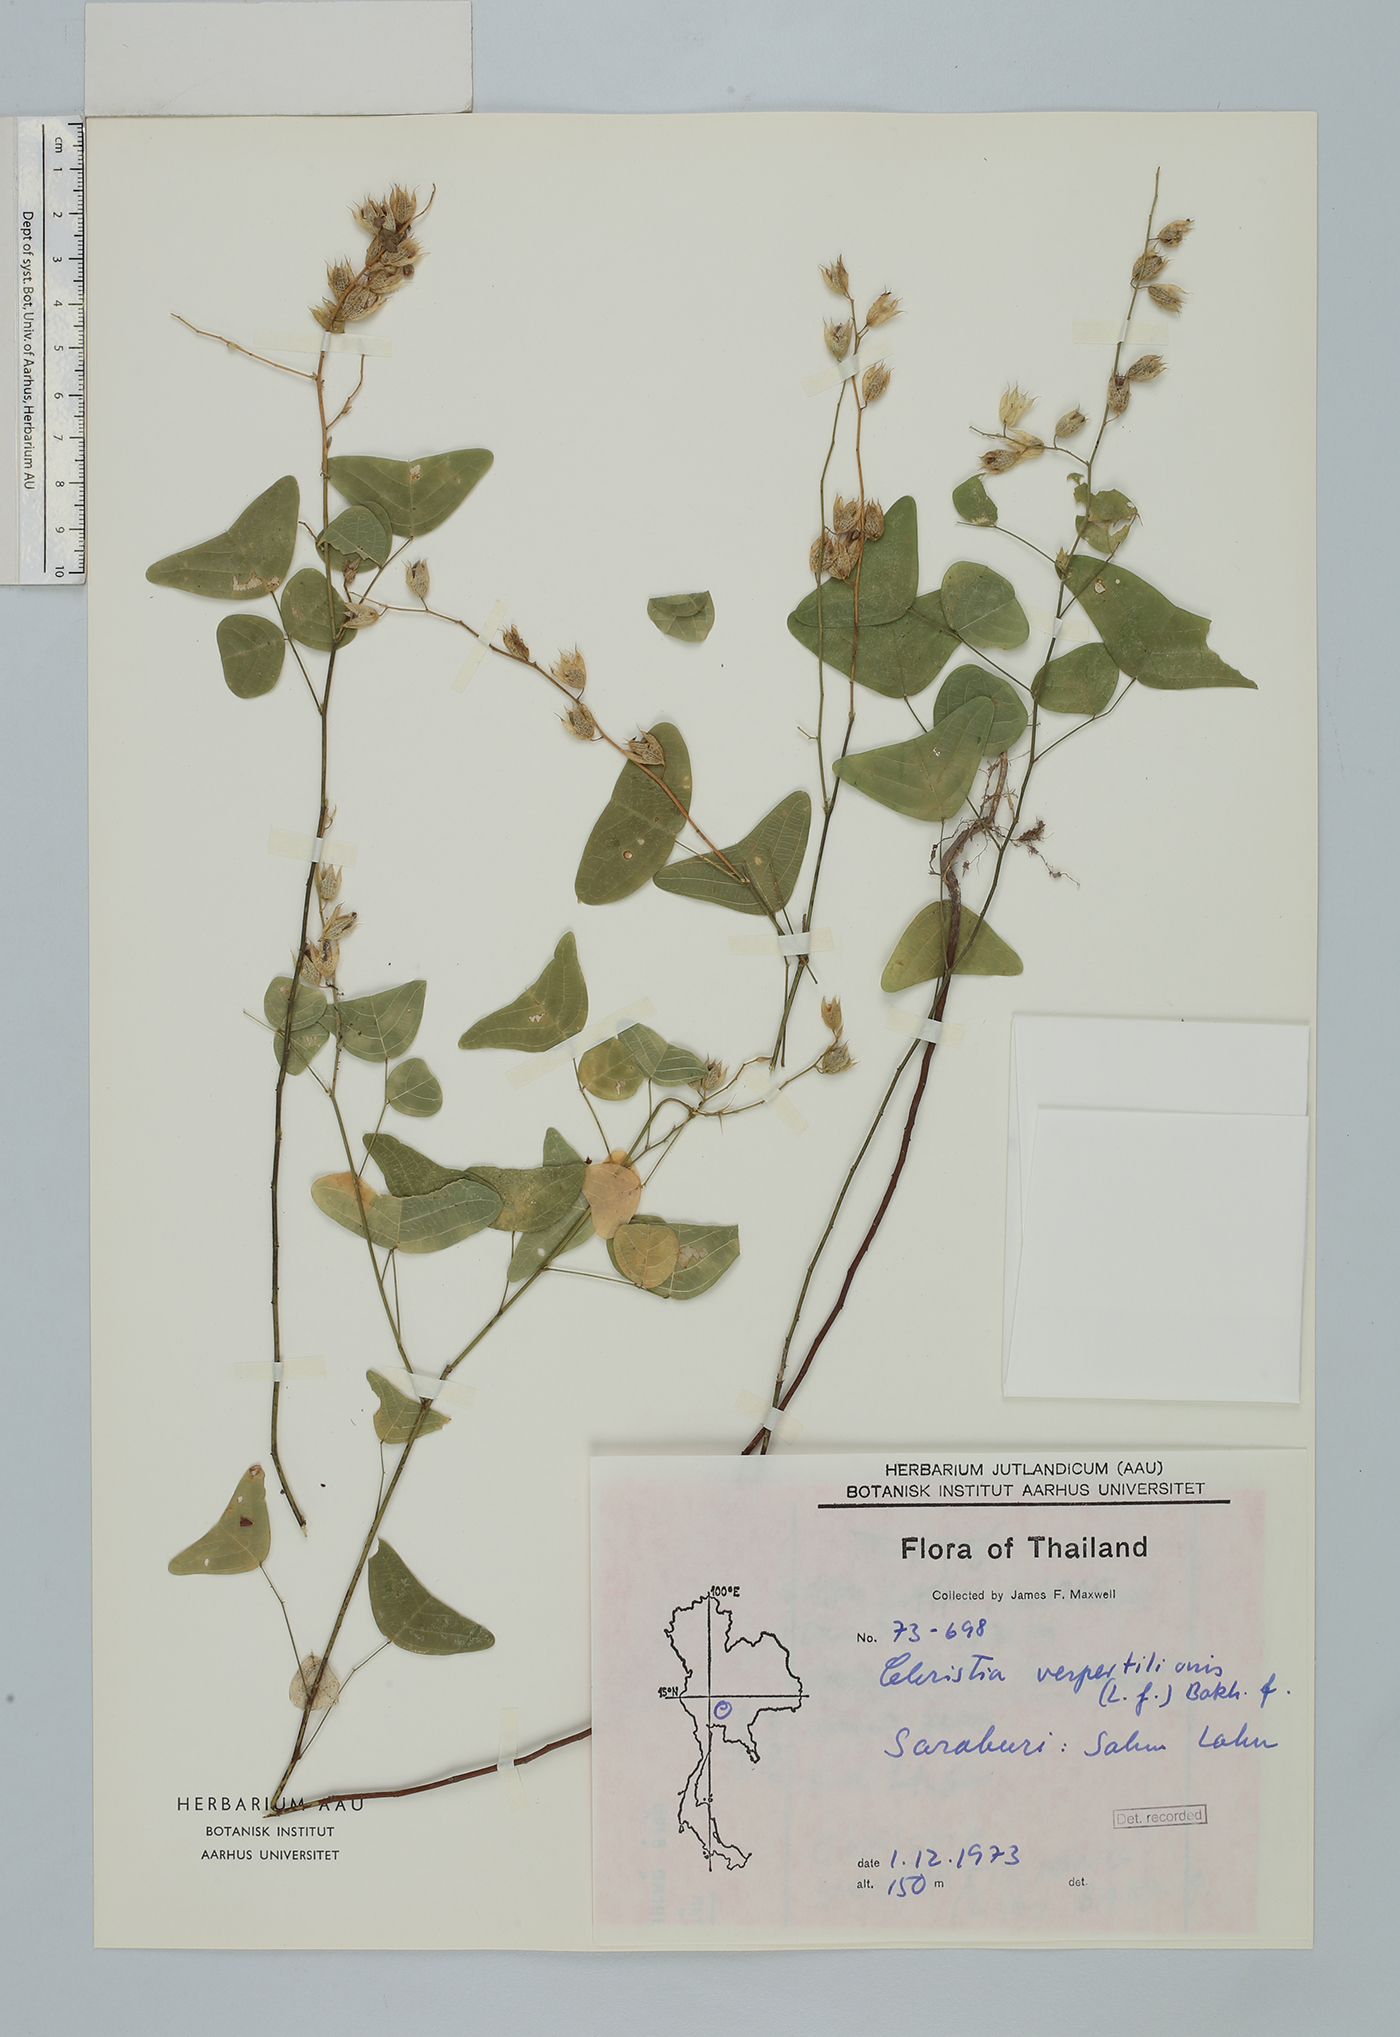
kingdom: Plantae
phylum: Tracheophyta
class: Magnoliopsida
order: Fabales
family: Fabaceae
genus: Christia
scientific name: Christia vespertilionis
